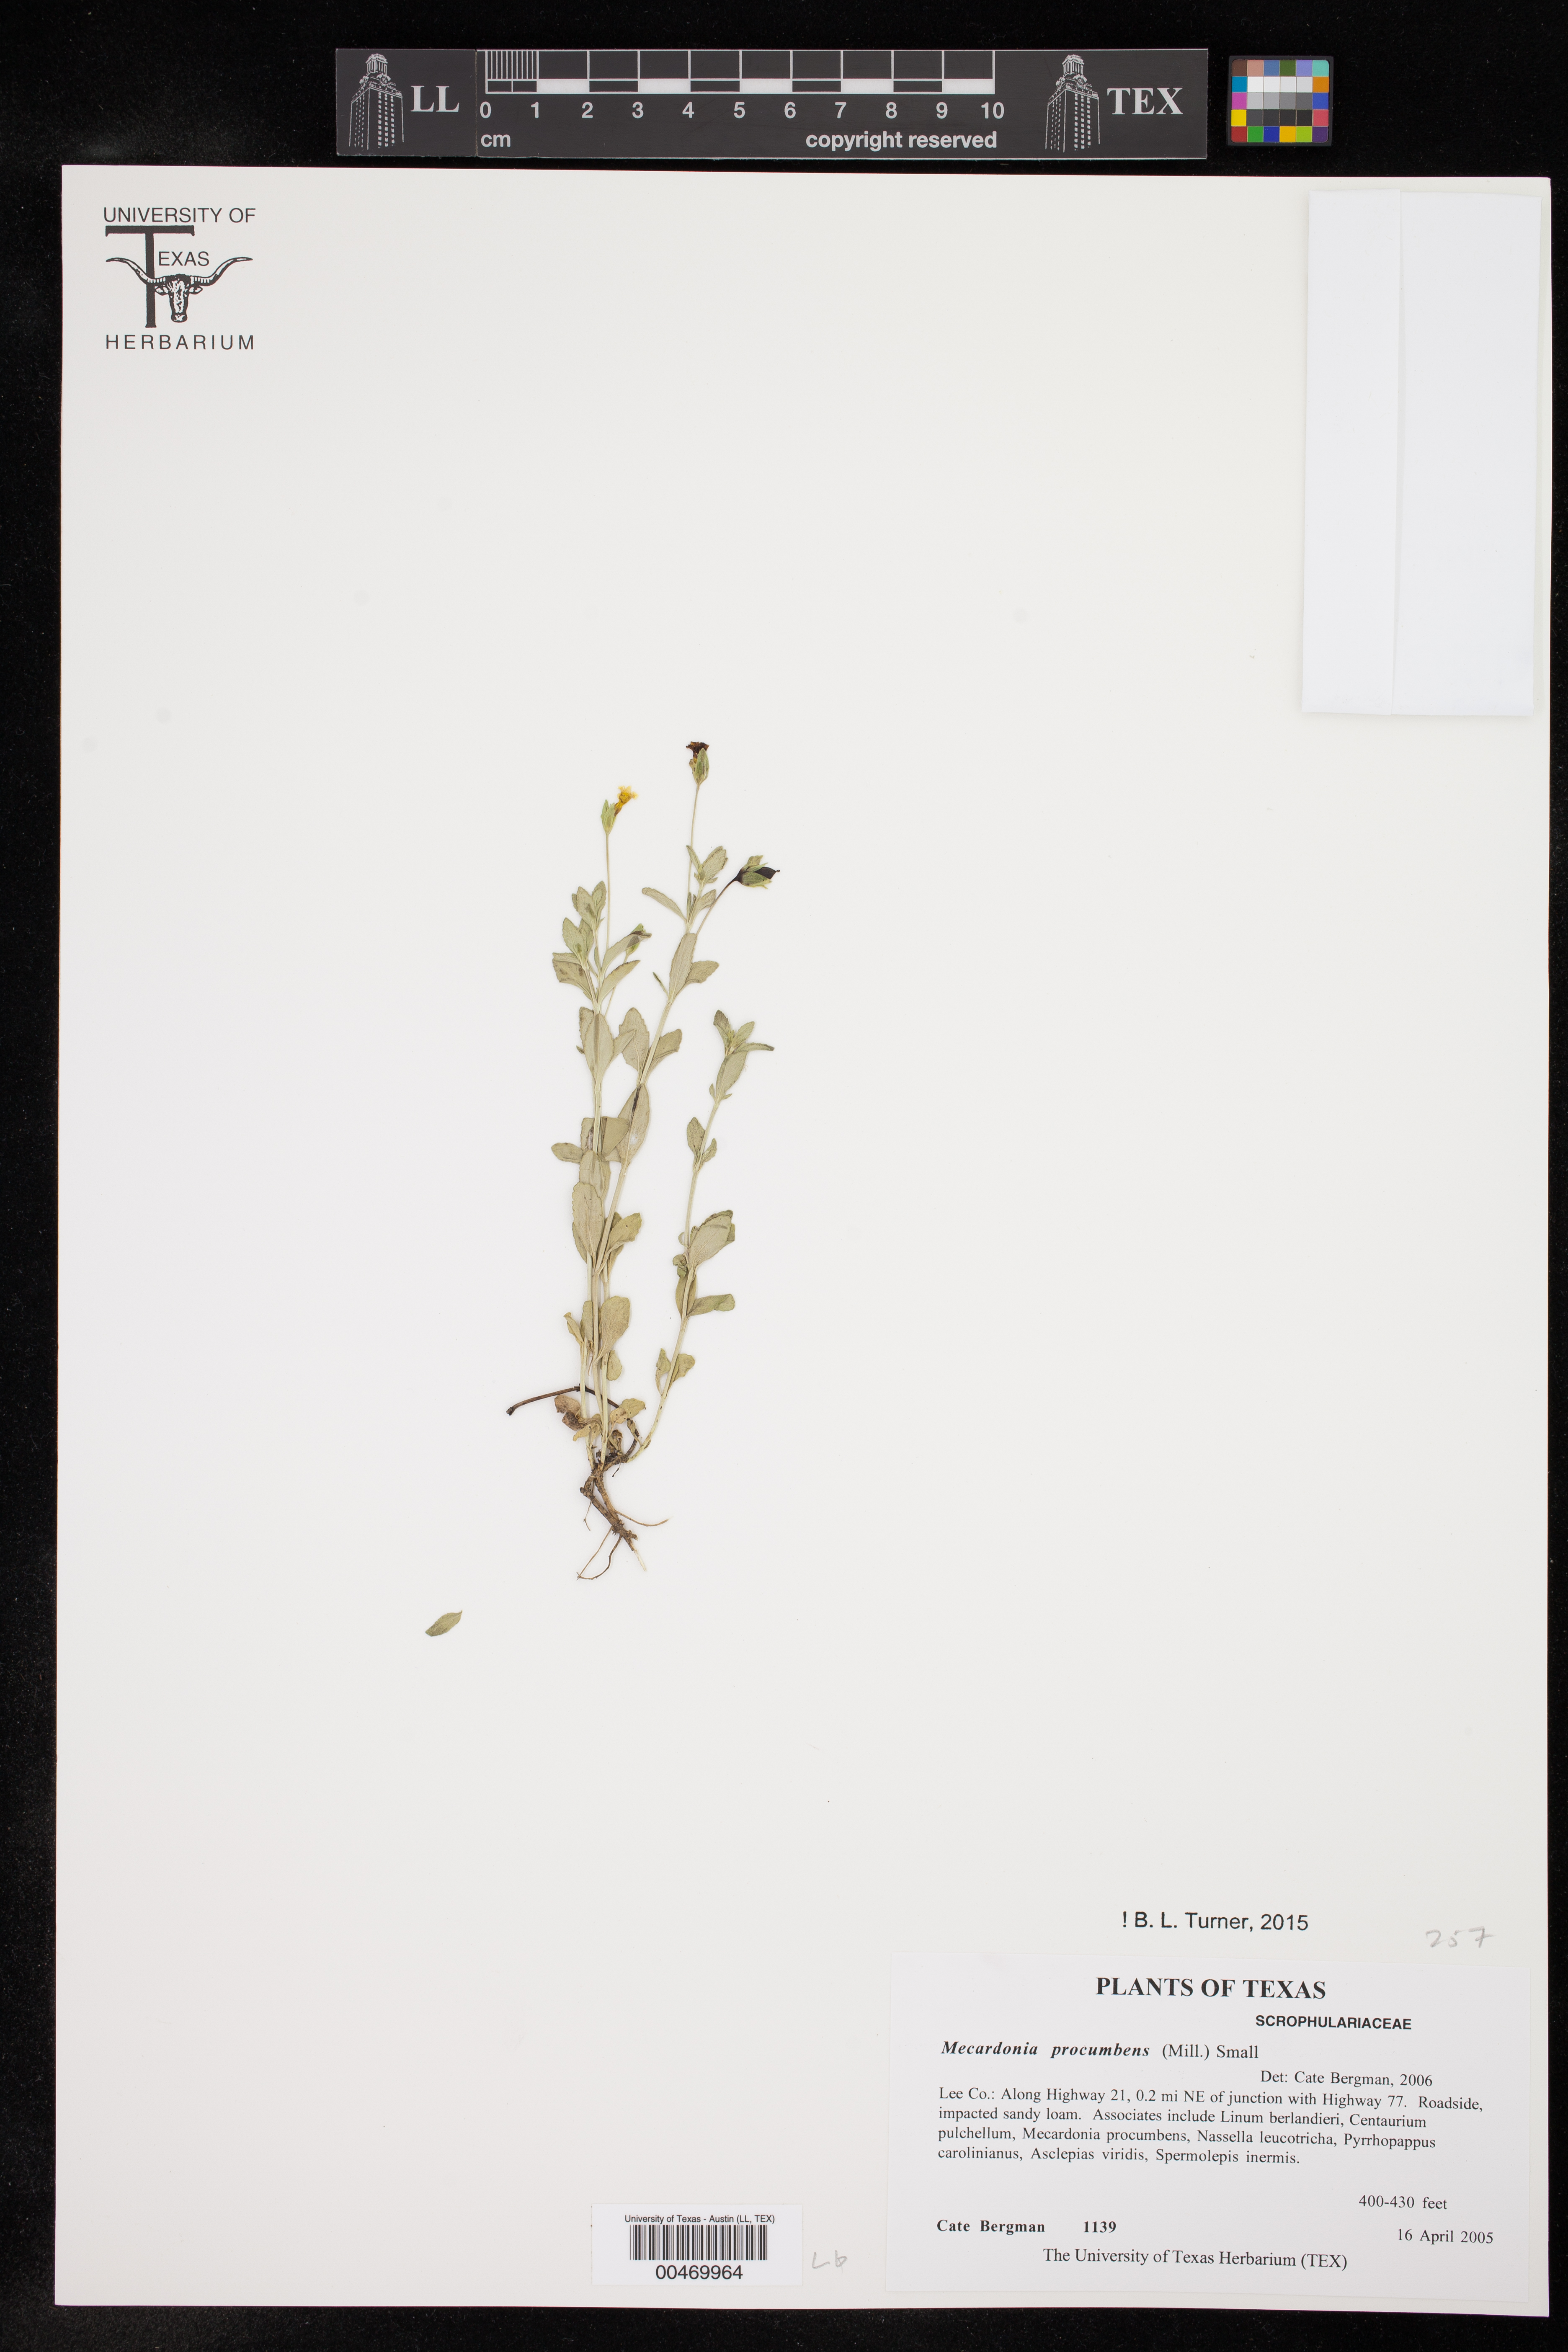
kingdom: Plantae
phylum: Tracheophyta
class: Magnoliopsida
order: Lamiales
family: Plantaginaceae
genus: Mecardonia
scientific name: Mecardonia procumbens
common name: Baby jump-up
